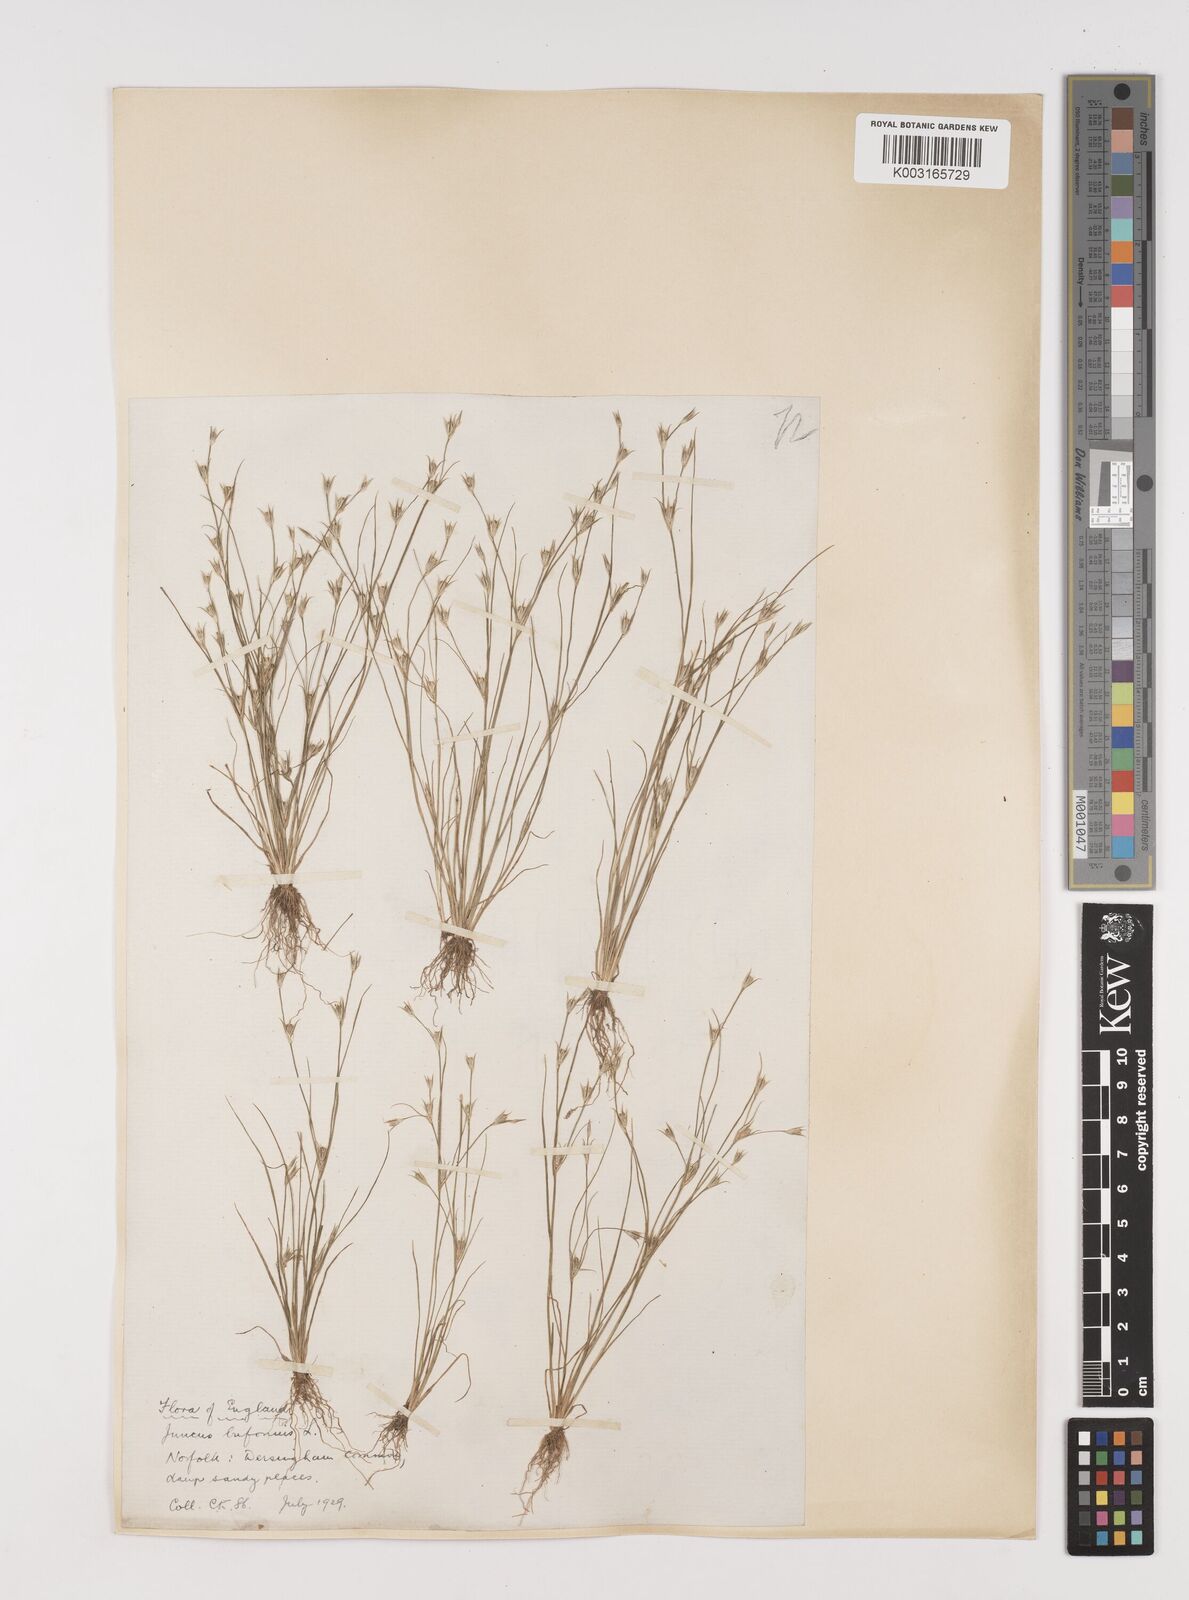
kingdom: Plantae
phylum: Tracheophyta
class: Liliopsida
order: Poales
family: Juncaceae
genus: Juncus
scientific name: Juncus bufonius
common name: Toad rush
